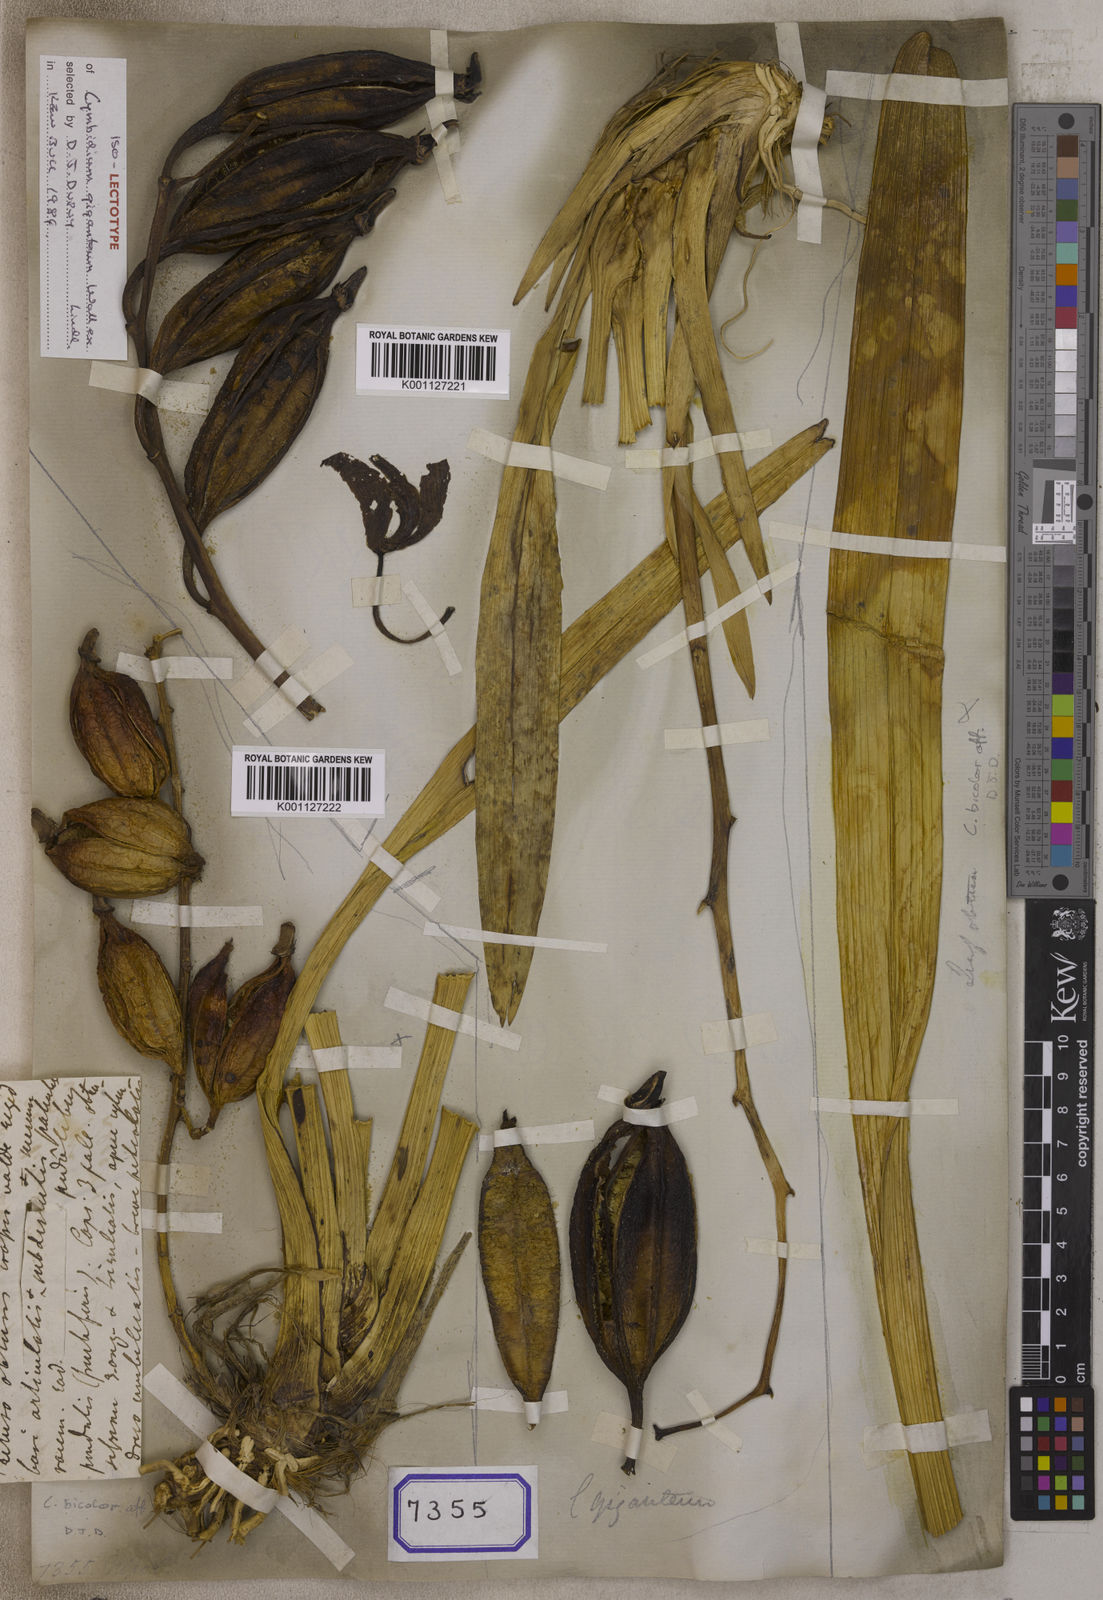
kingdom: Plantae
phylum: Tracheophyta
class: Liliopsida
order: Asparagales
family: Orchidaceae
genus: Cymbidium
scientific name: Cymbidium
